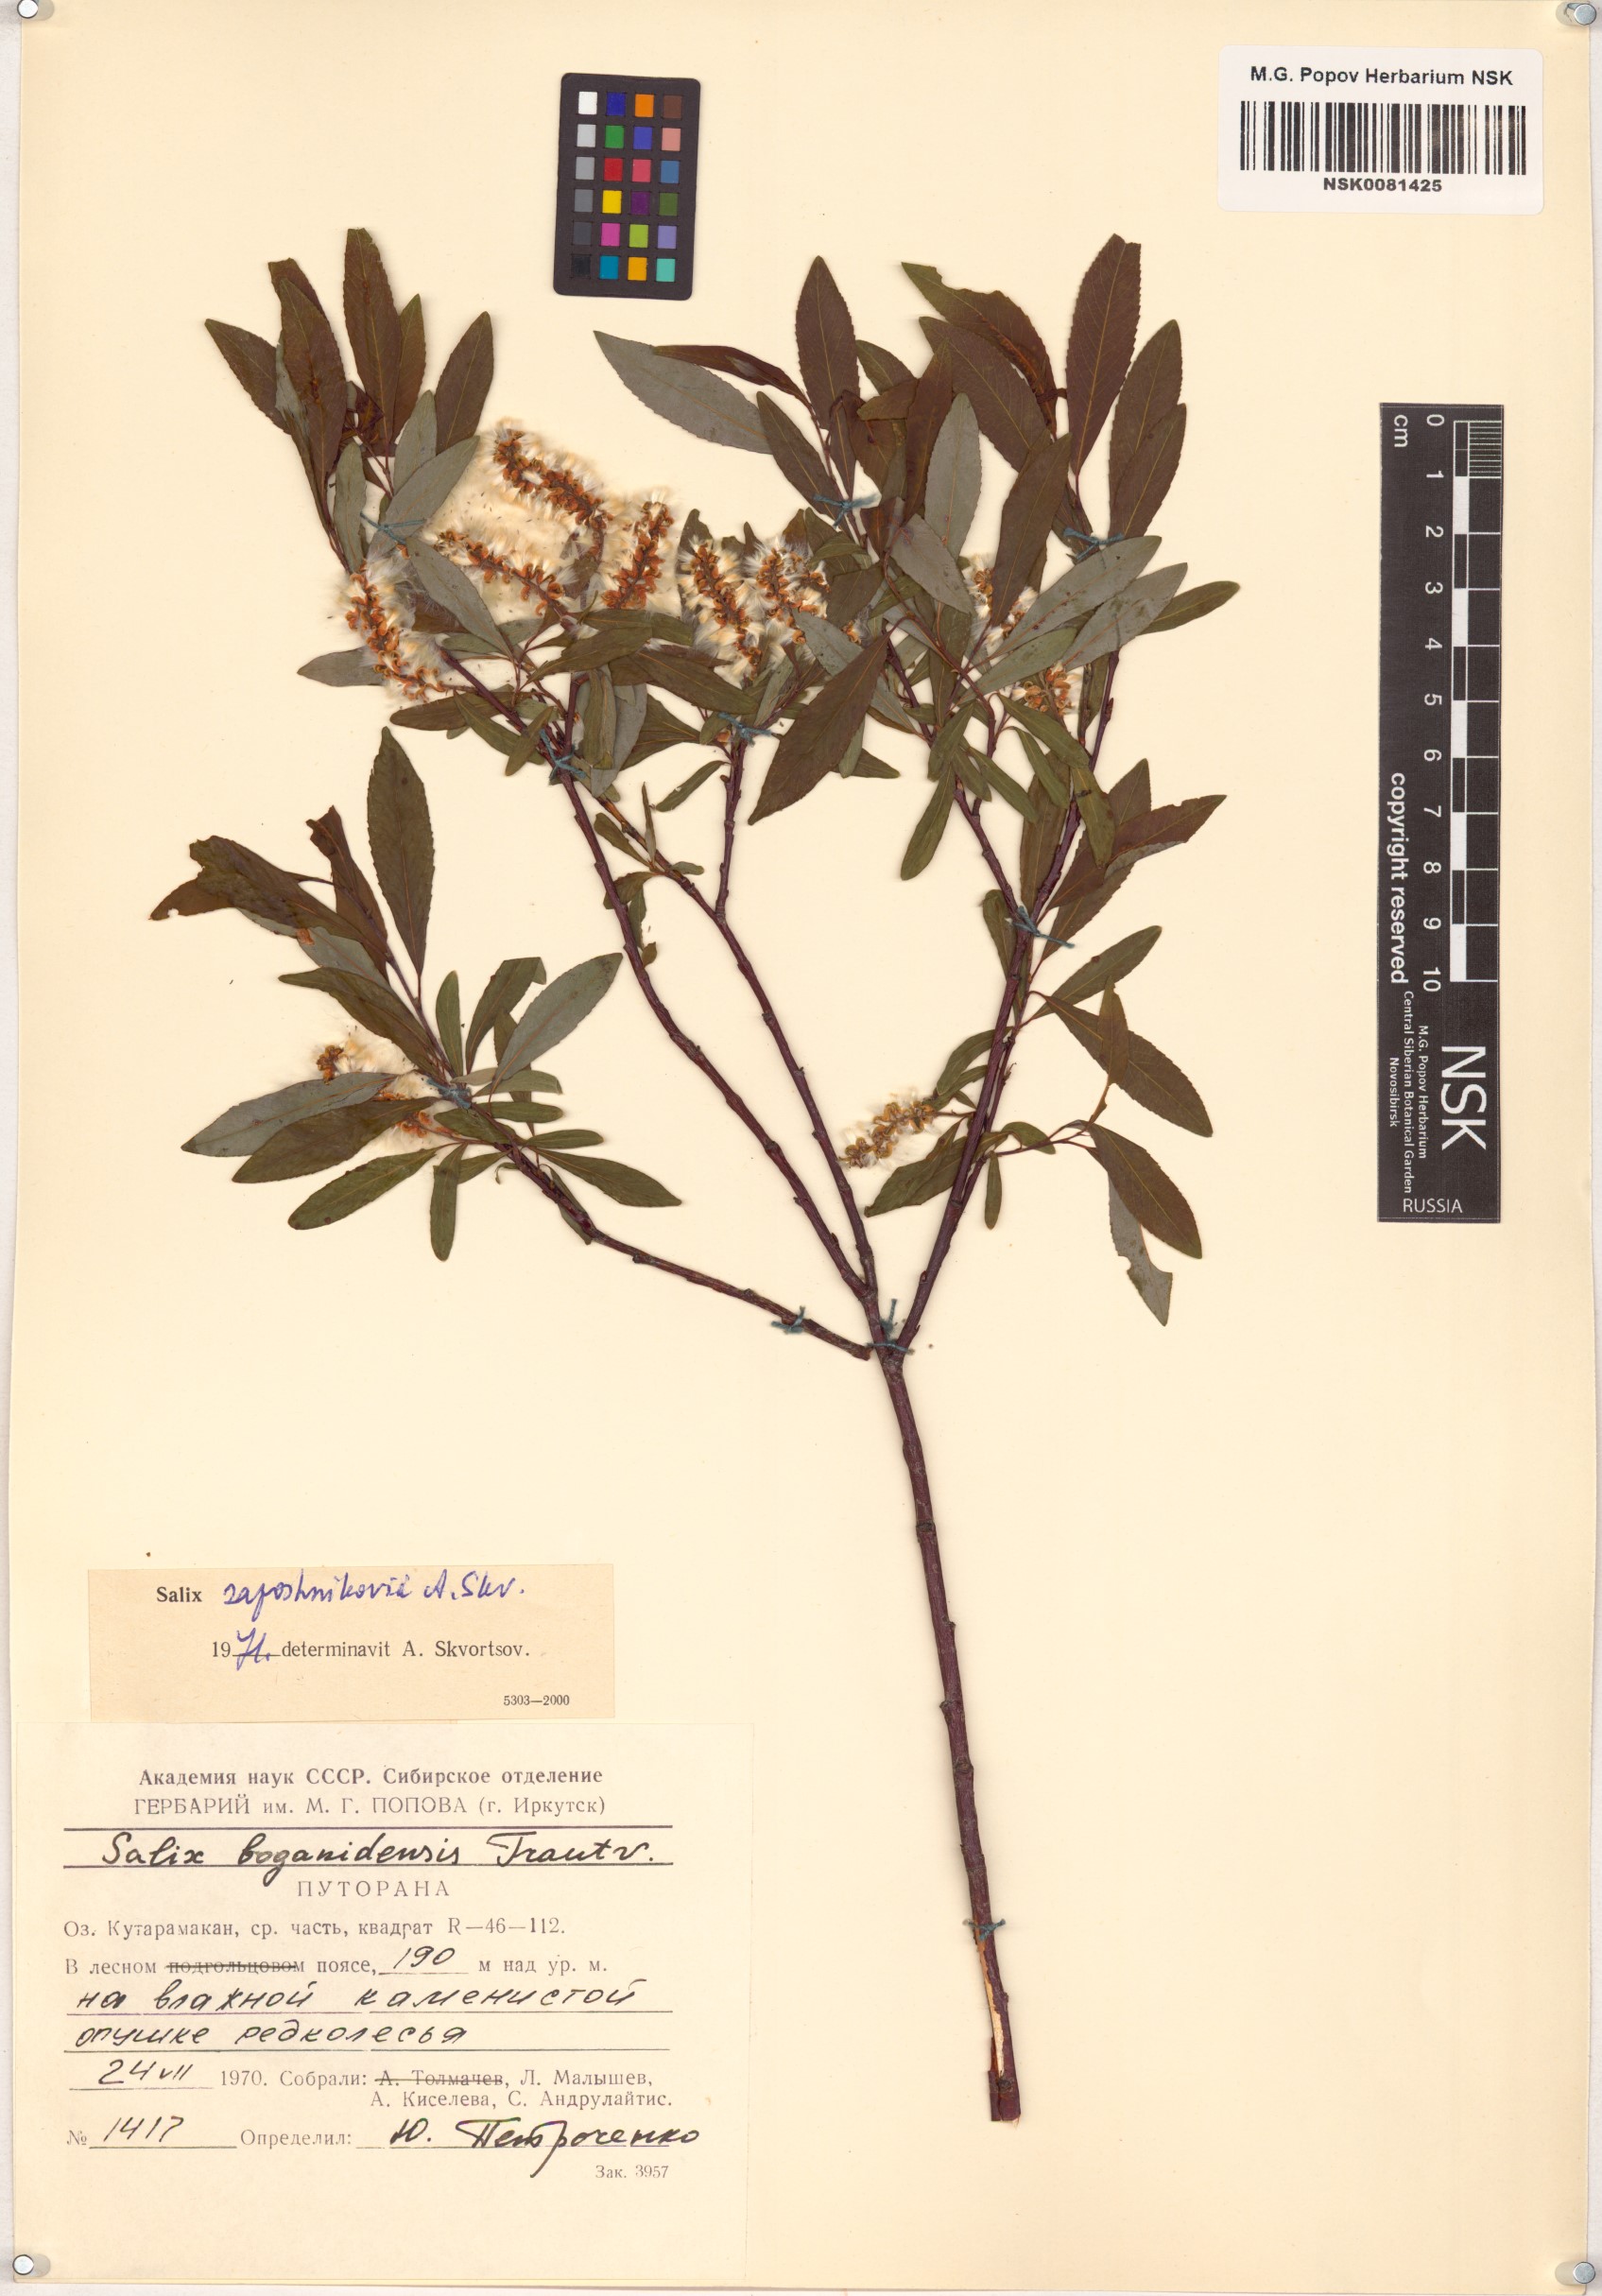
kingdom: Plantae
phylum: Tracheophyta
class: Magnoliopsida
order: Malpighiales
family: Salicaceae
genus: Salix
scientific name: Salix saposhnikovii
